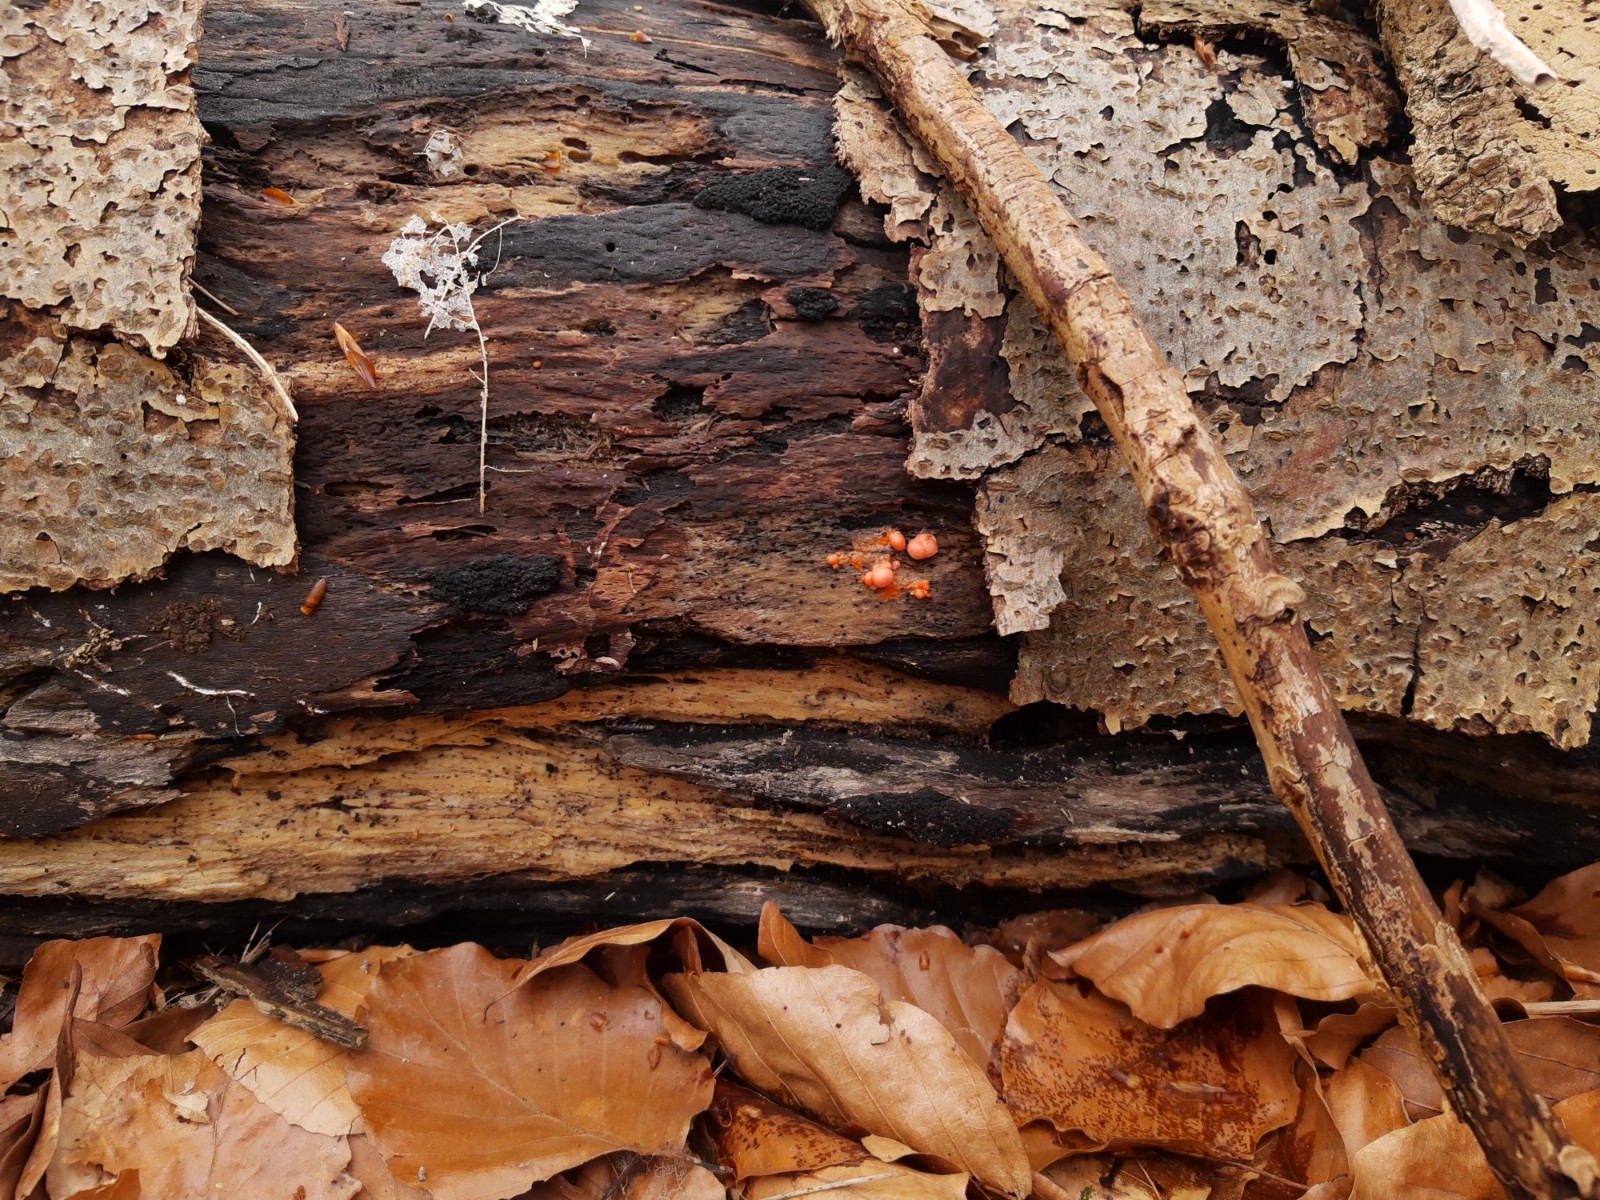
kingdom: Protozoa
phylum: Mycetozoa
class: Myxomycetes
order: Cribrariales
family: Tubiferaceae
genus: Lycogala
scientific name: Lycogala epidendrum
